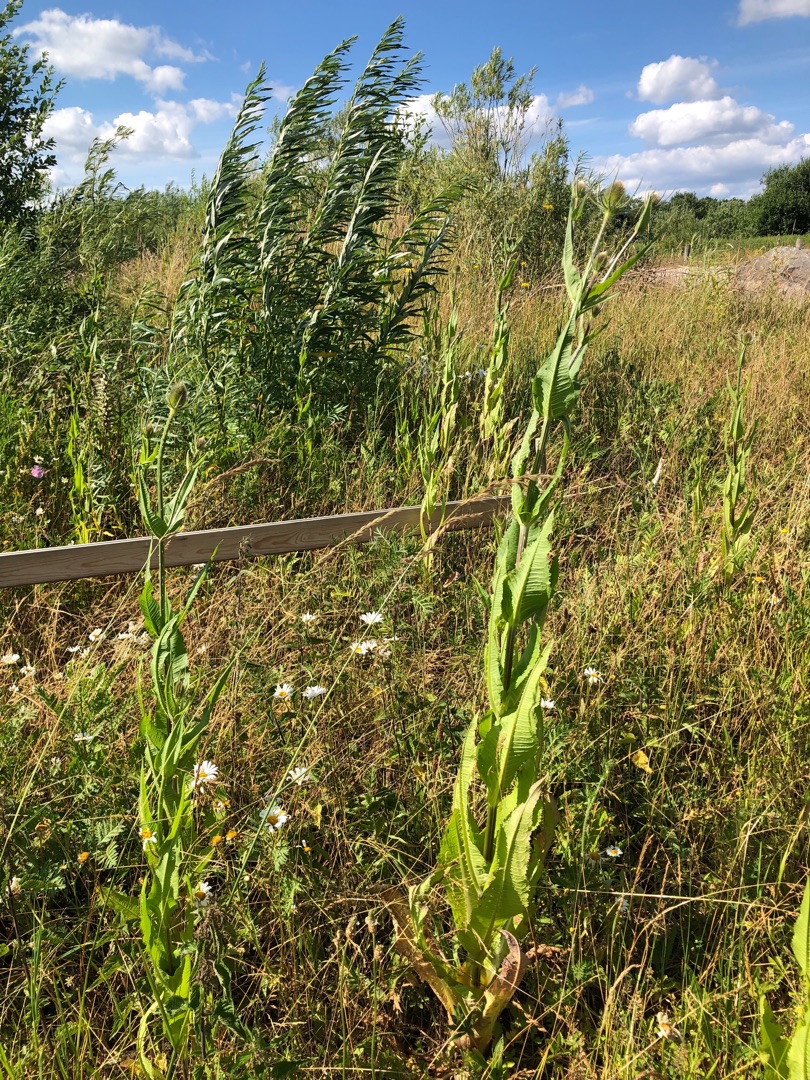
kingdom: Plantae
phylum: Tracheophyta
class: Magnoliopsida
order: Dipsacales
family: Caprifoliaceae
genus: Dipsacus
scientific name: Dipsacus fullonum
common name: Gærde-kartebolle
